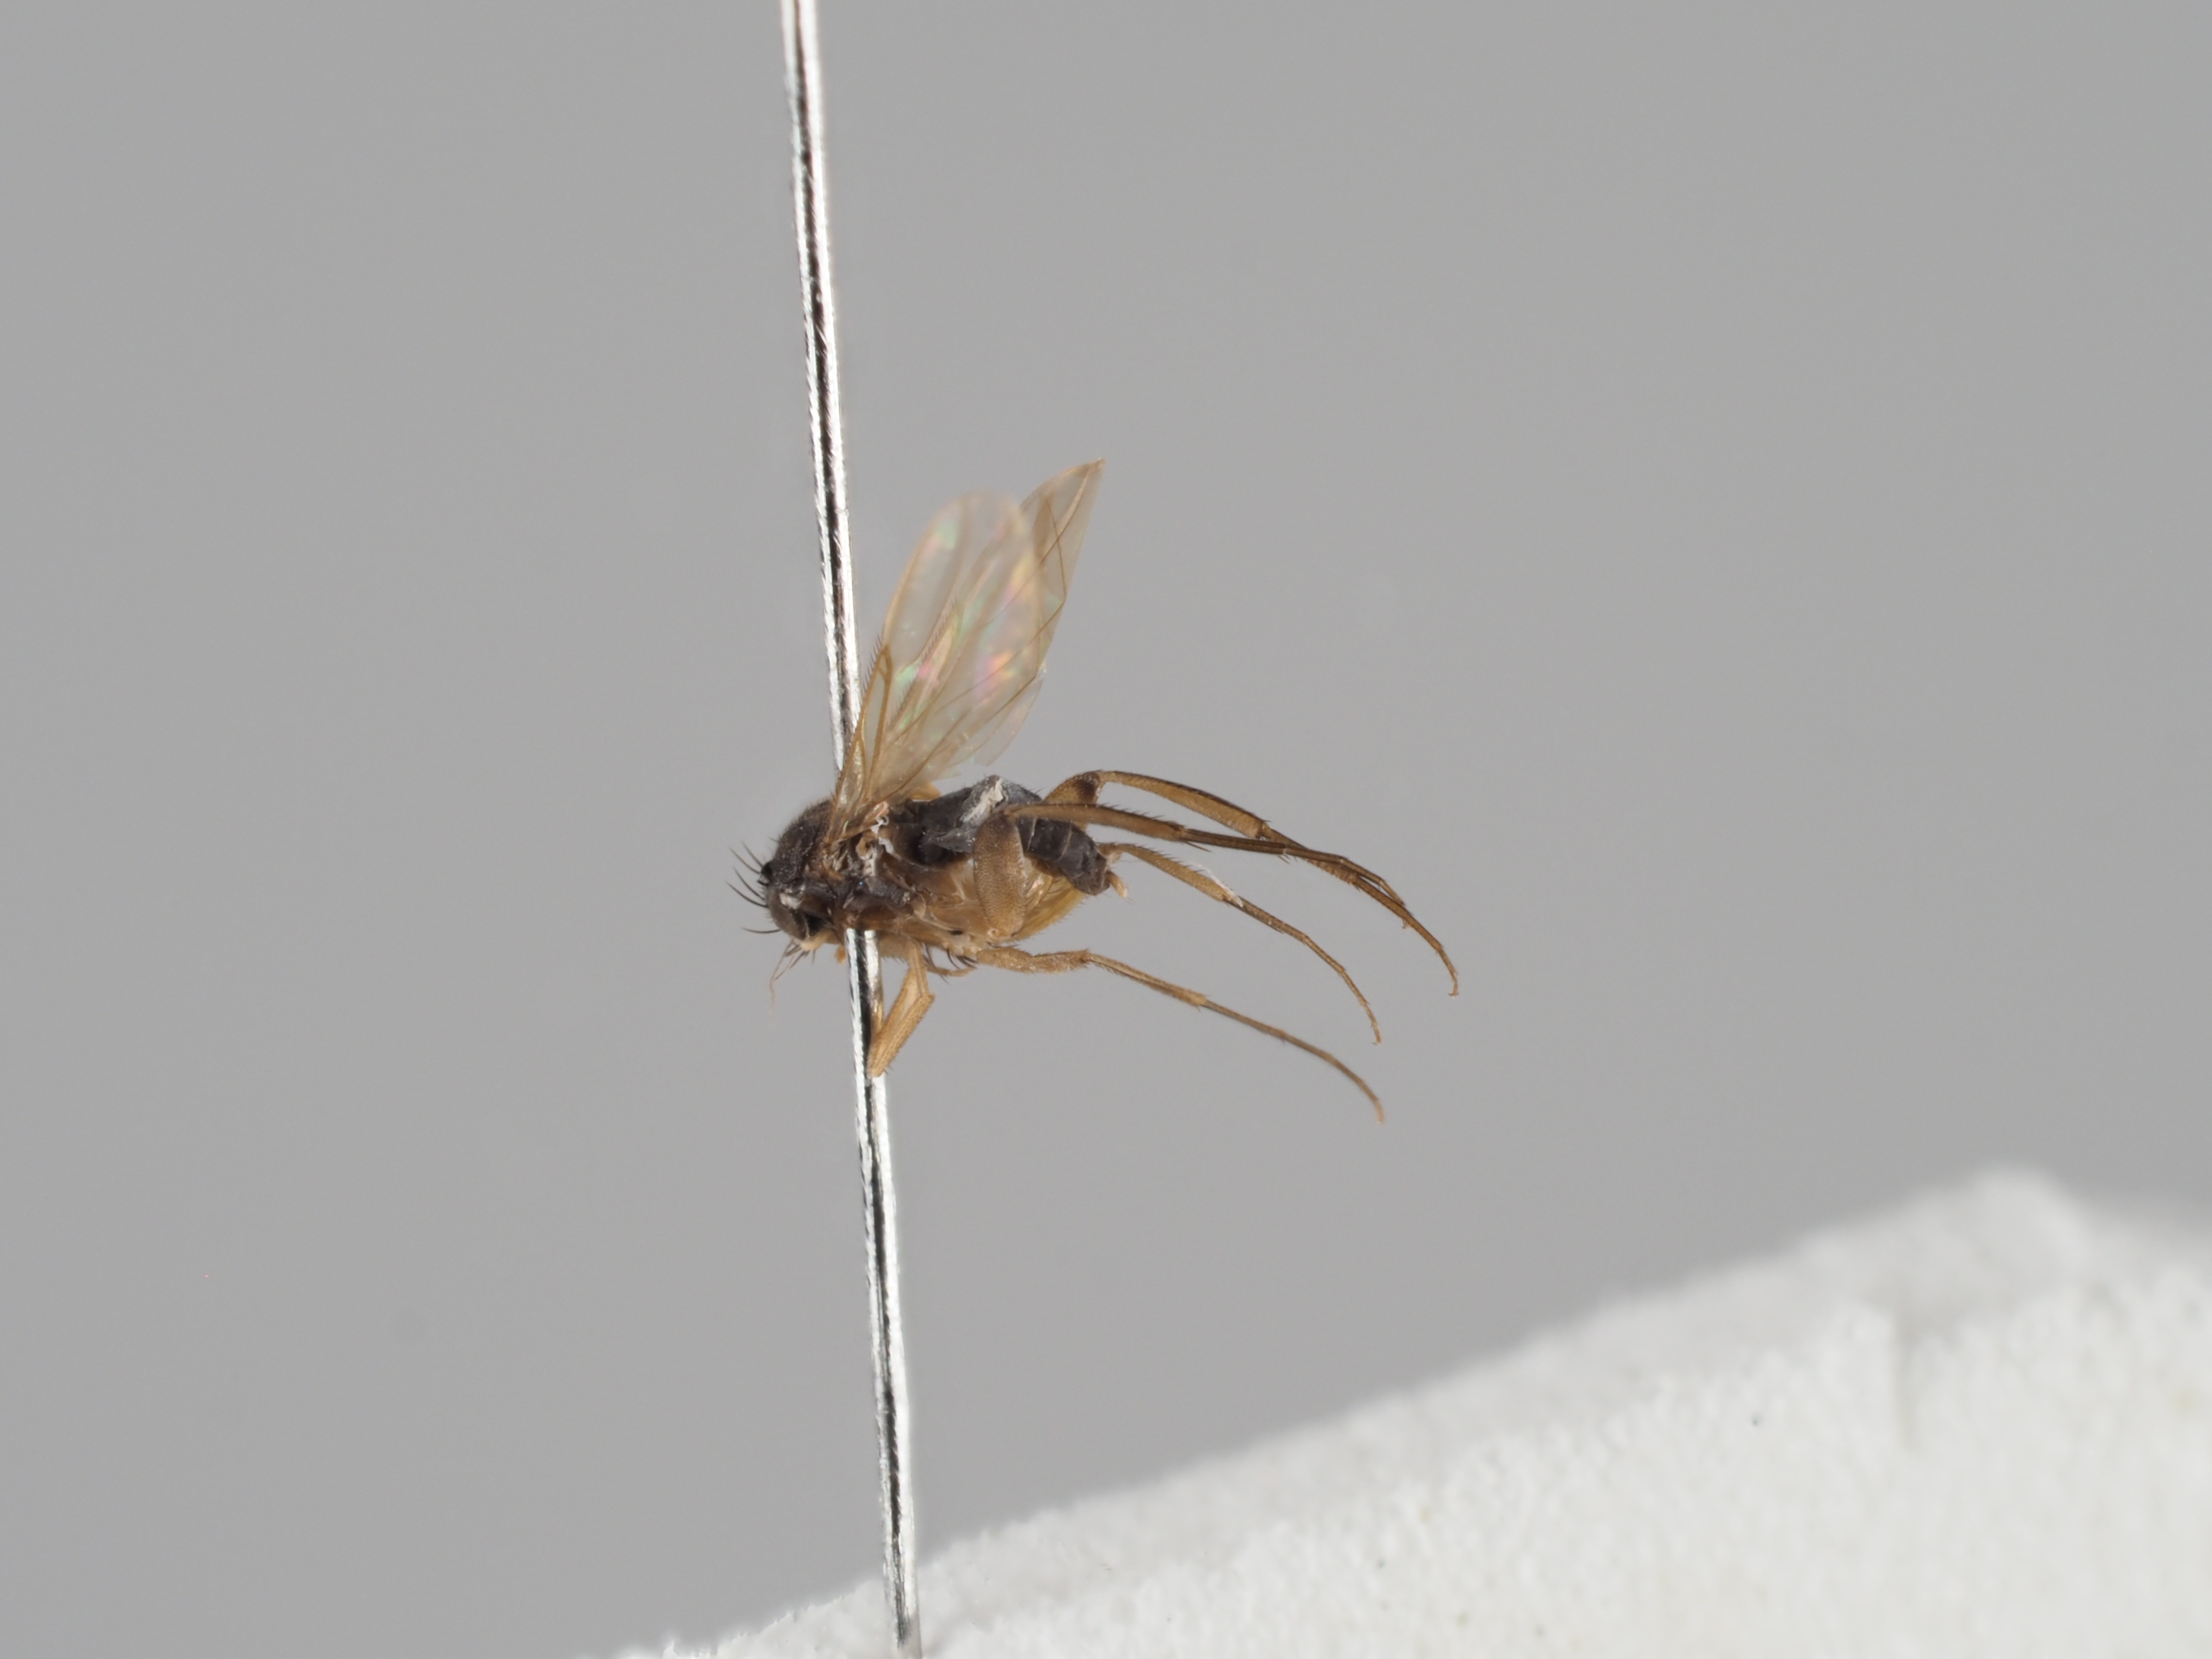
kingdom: Animalia
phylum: Arthropoda
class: Insecta
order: Diptera
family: Phoridae
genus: Megaselia
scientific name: Megaselia flava
